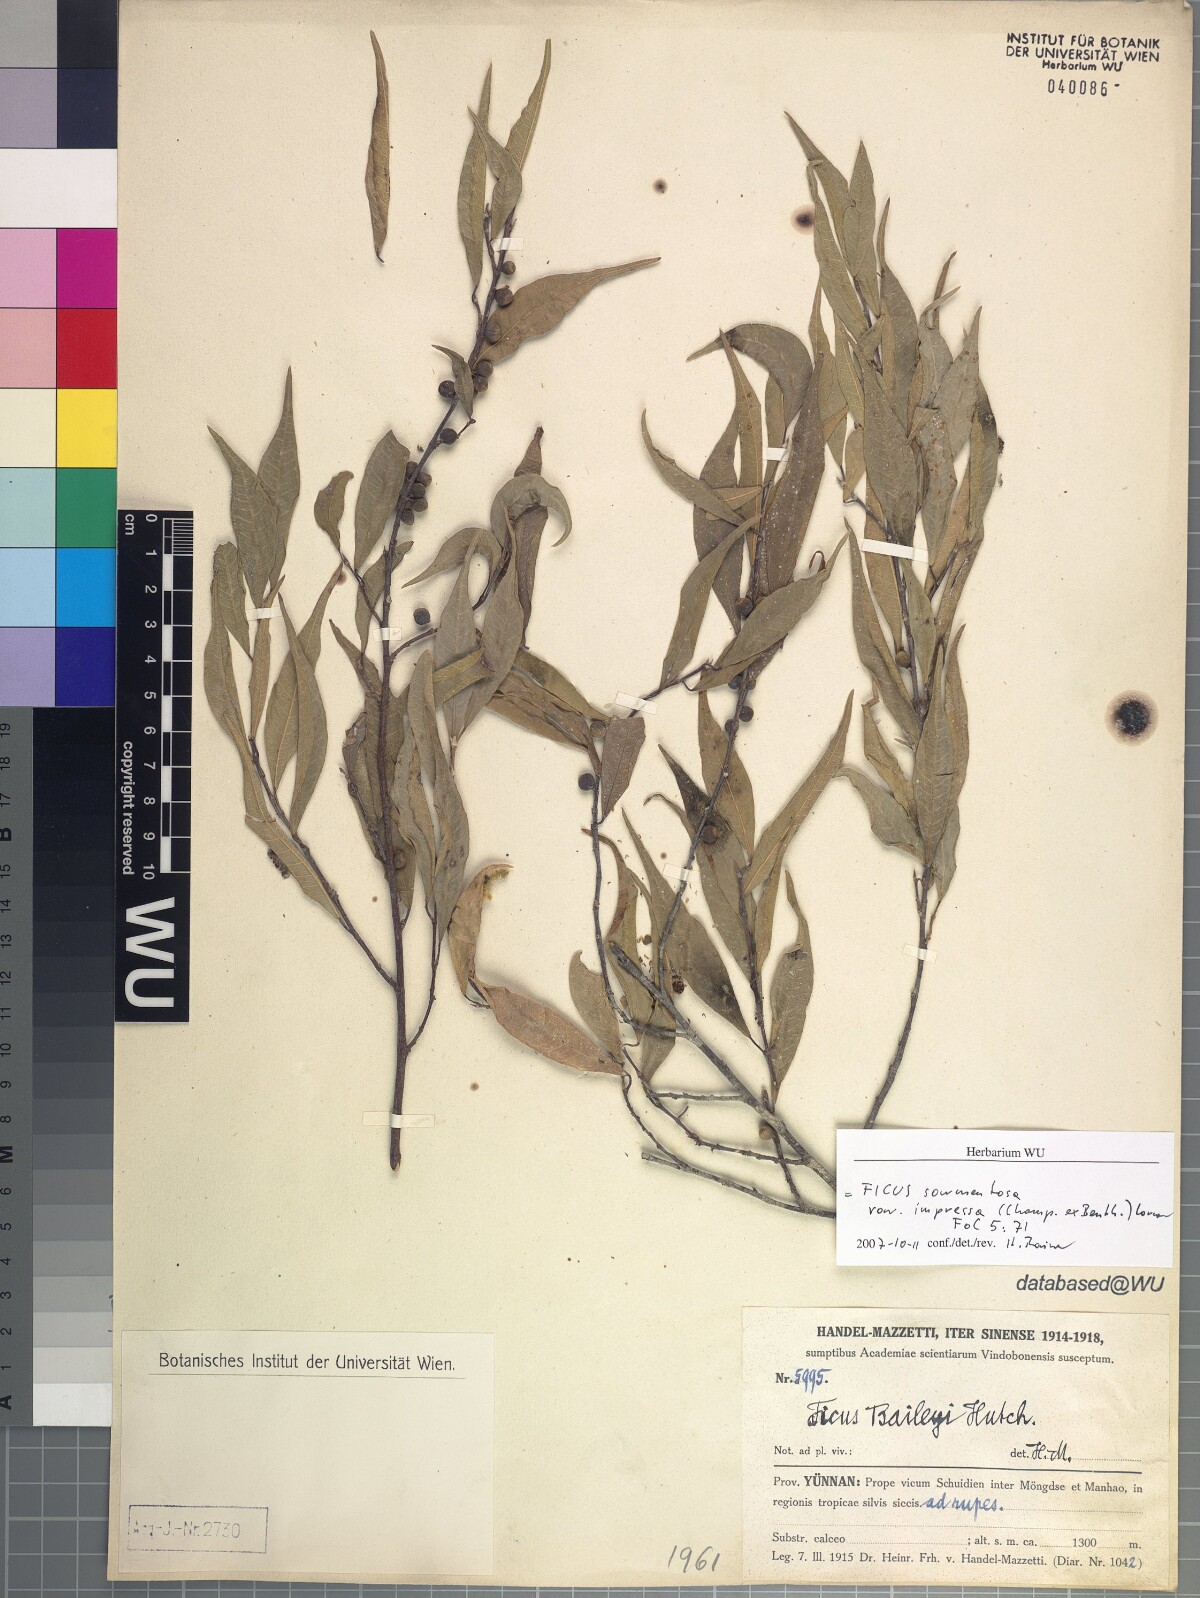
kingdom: Plantae
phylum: Tracheophyta
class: Magnoliopsida
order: Rosales
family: Moraceae
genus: Ficus
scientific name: Ficus sarmentosa
